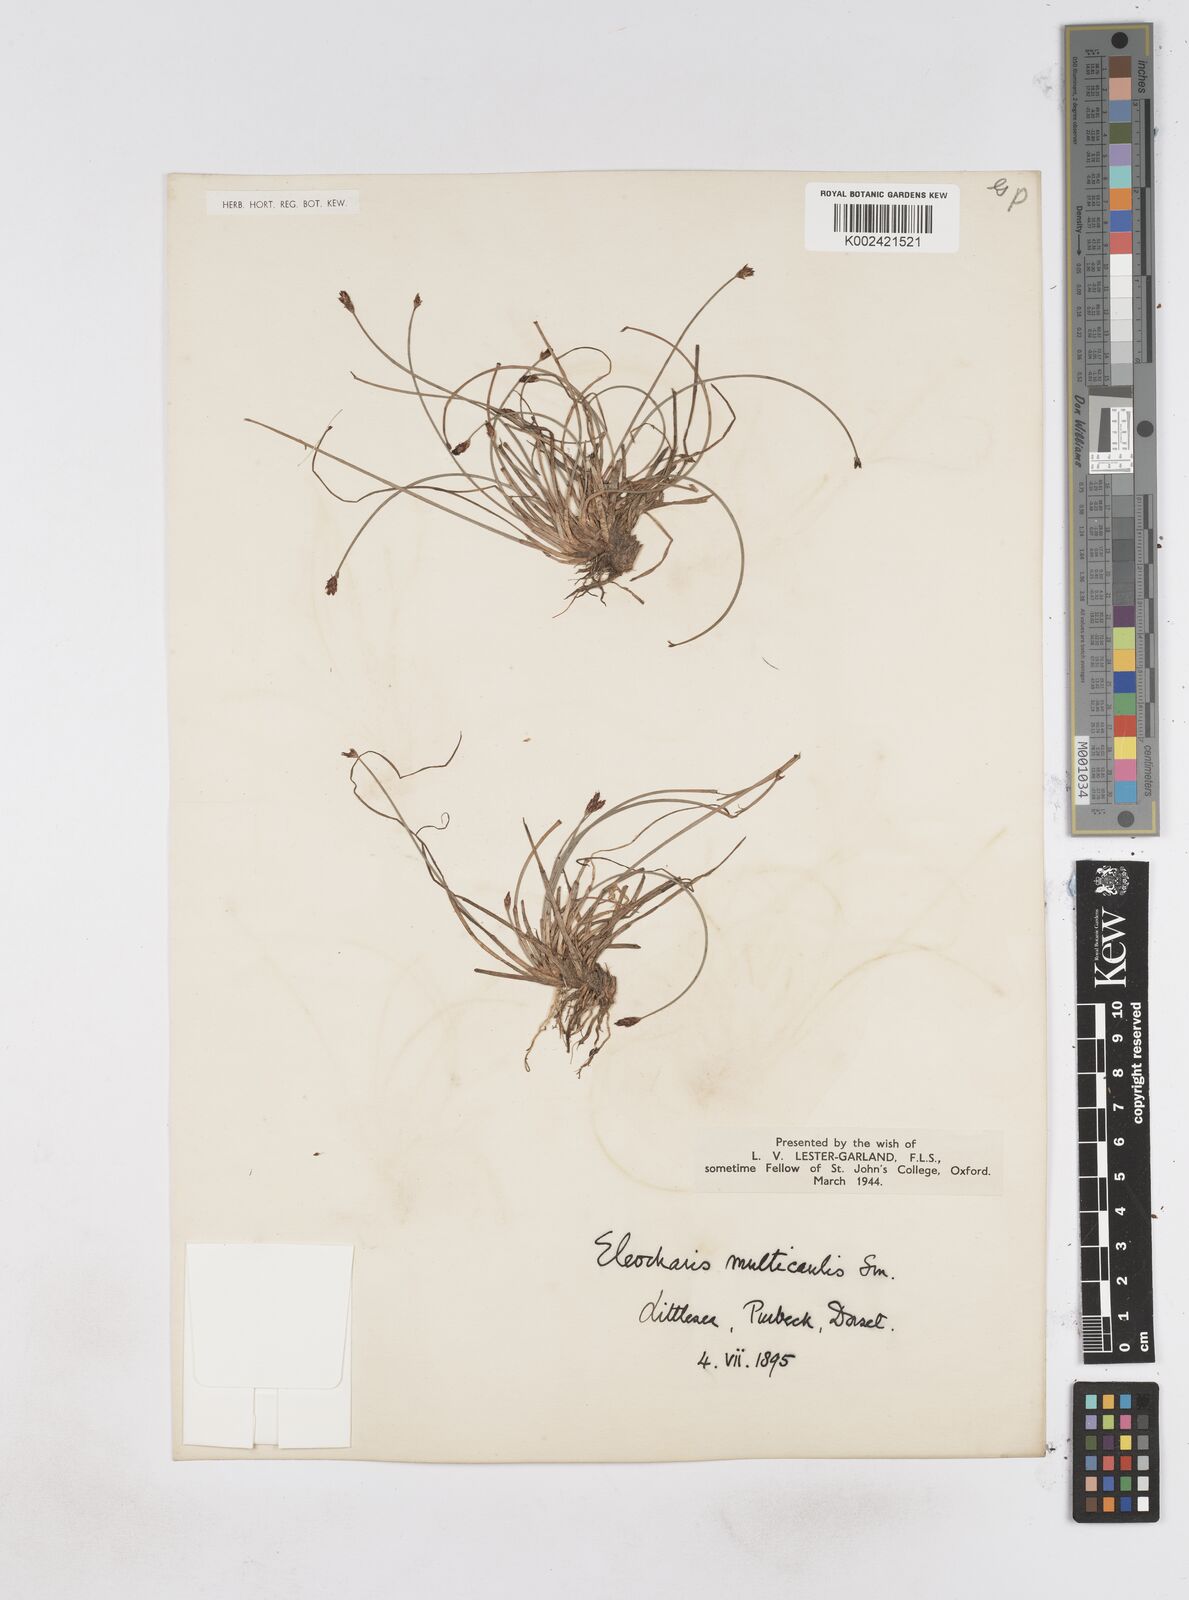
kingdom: Plantae
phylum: Tracheophyta
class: Liliopsida
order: Poales
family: Cyperaceae
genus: Eleocharis
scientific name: Eleocharis multicaulis
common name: Many-stalked spike-rush
